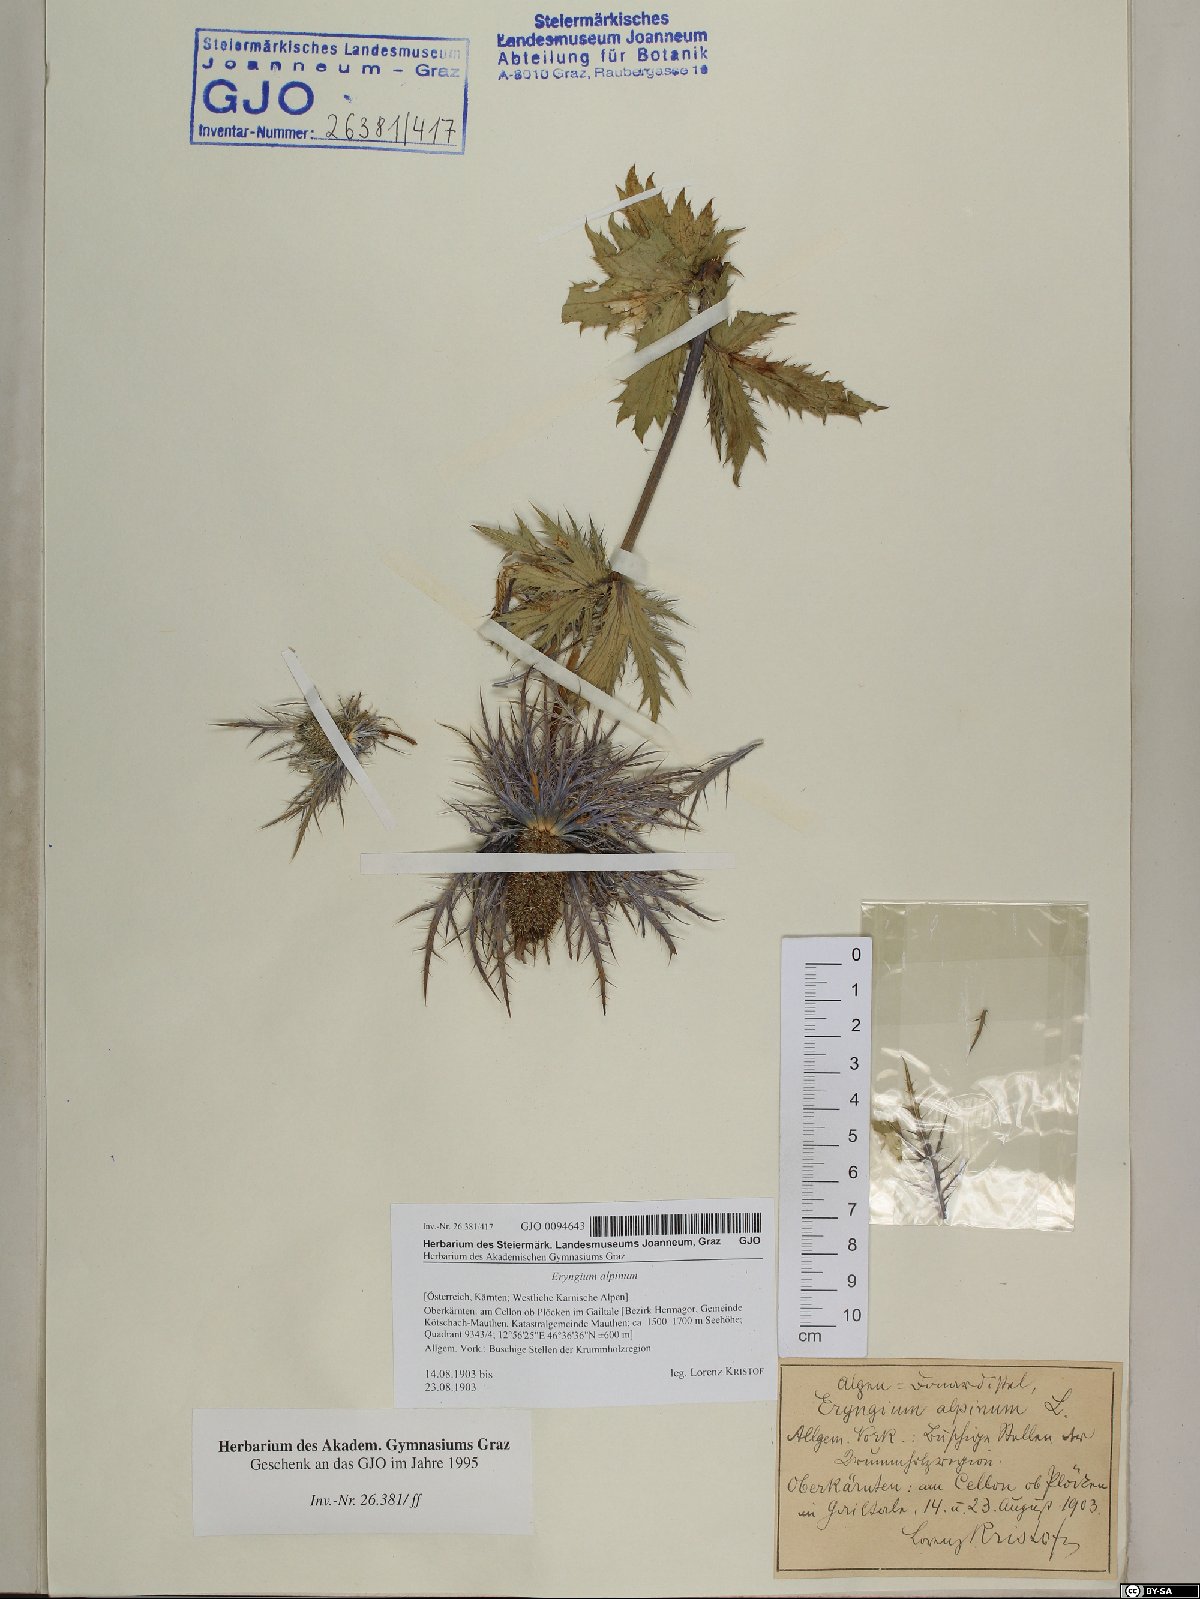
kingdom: Plantae
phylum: Tracheophyta
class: Magnoliopsida
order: Apiales
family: Apiaceae
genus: Eryngium
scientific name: Eryngium alpinum
